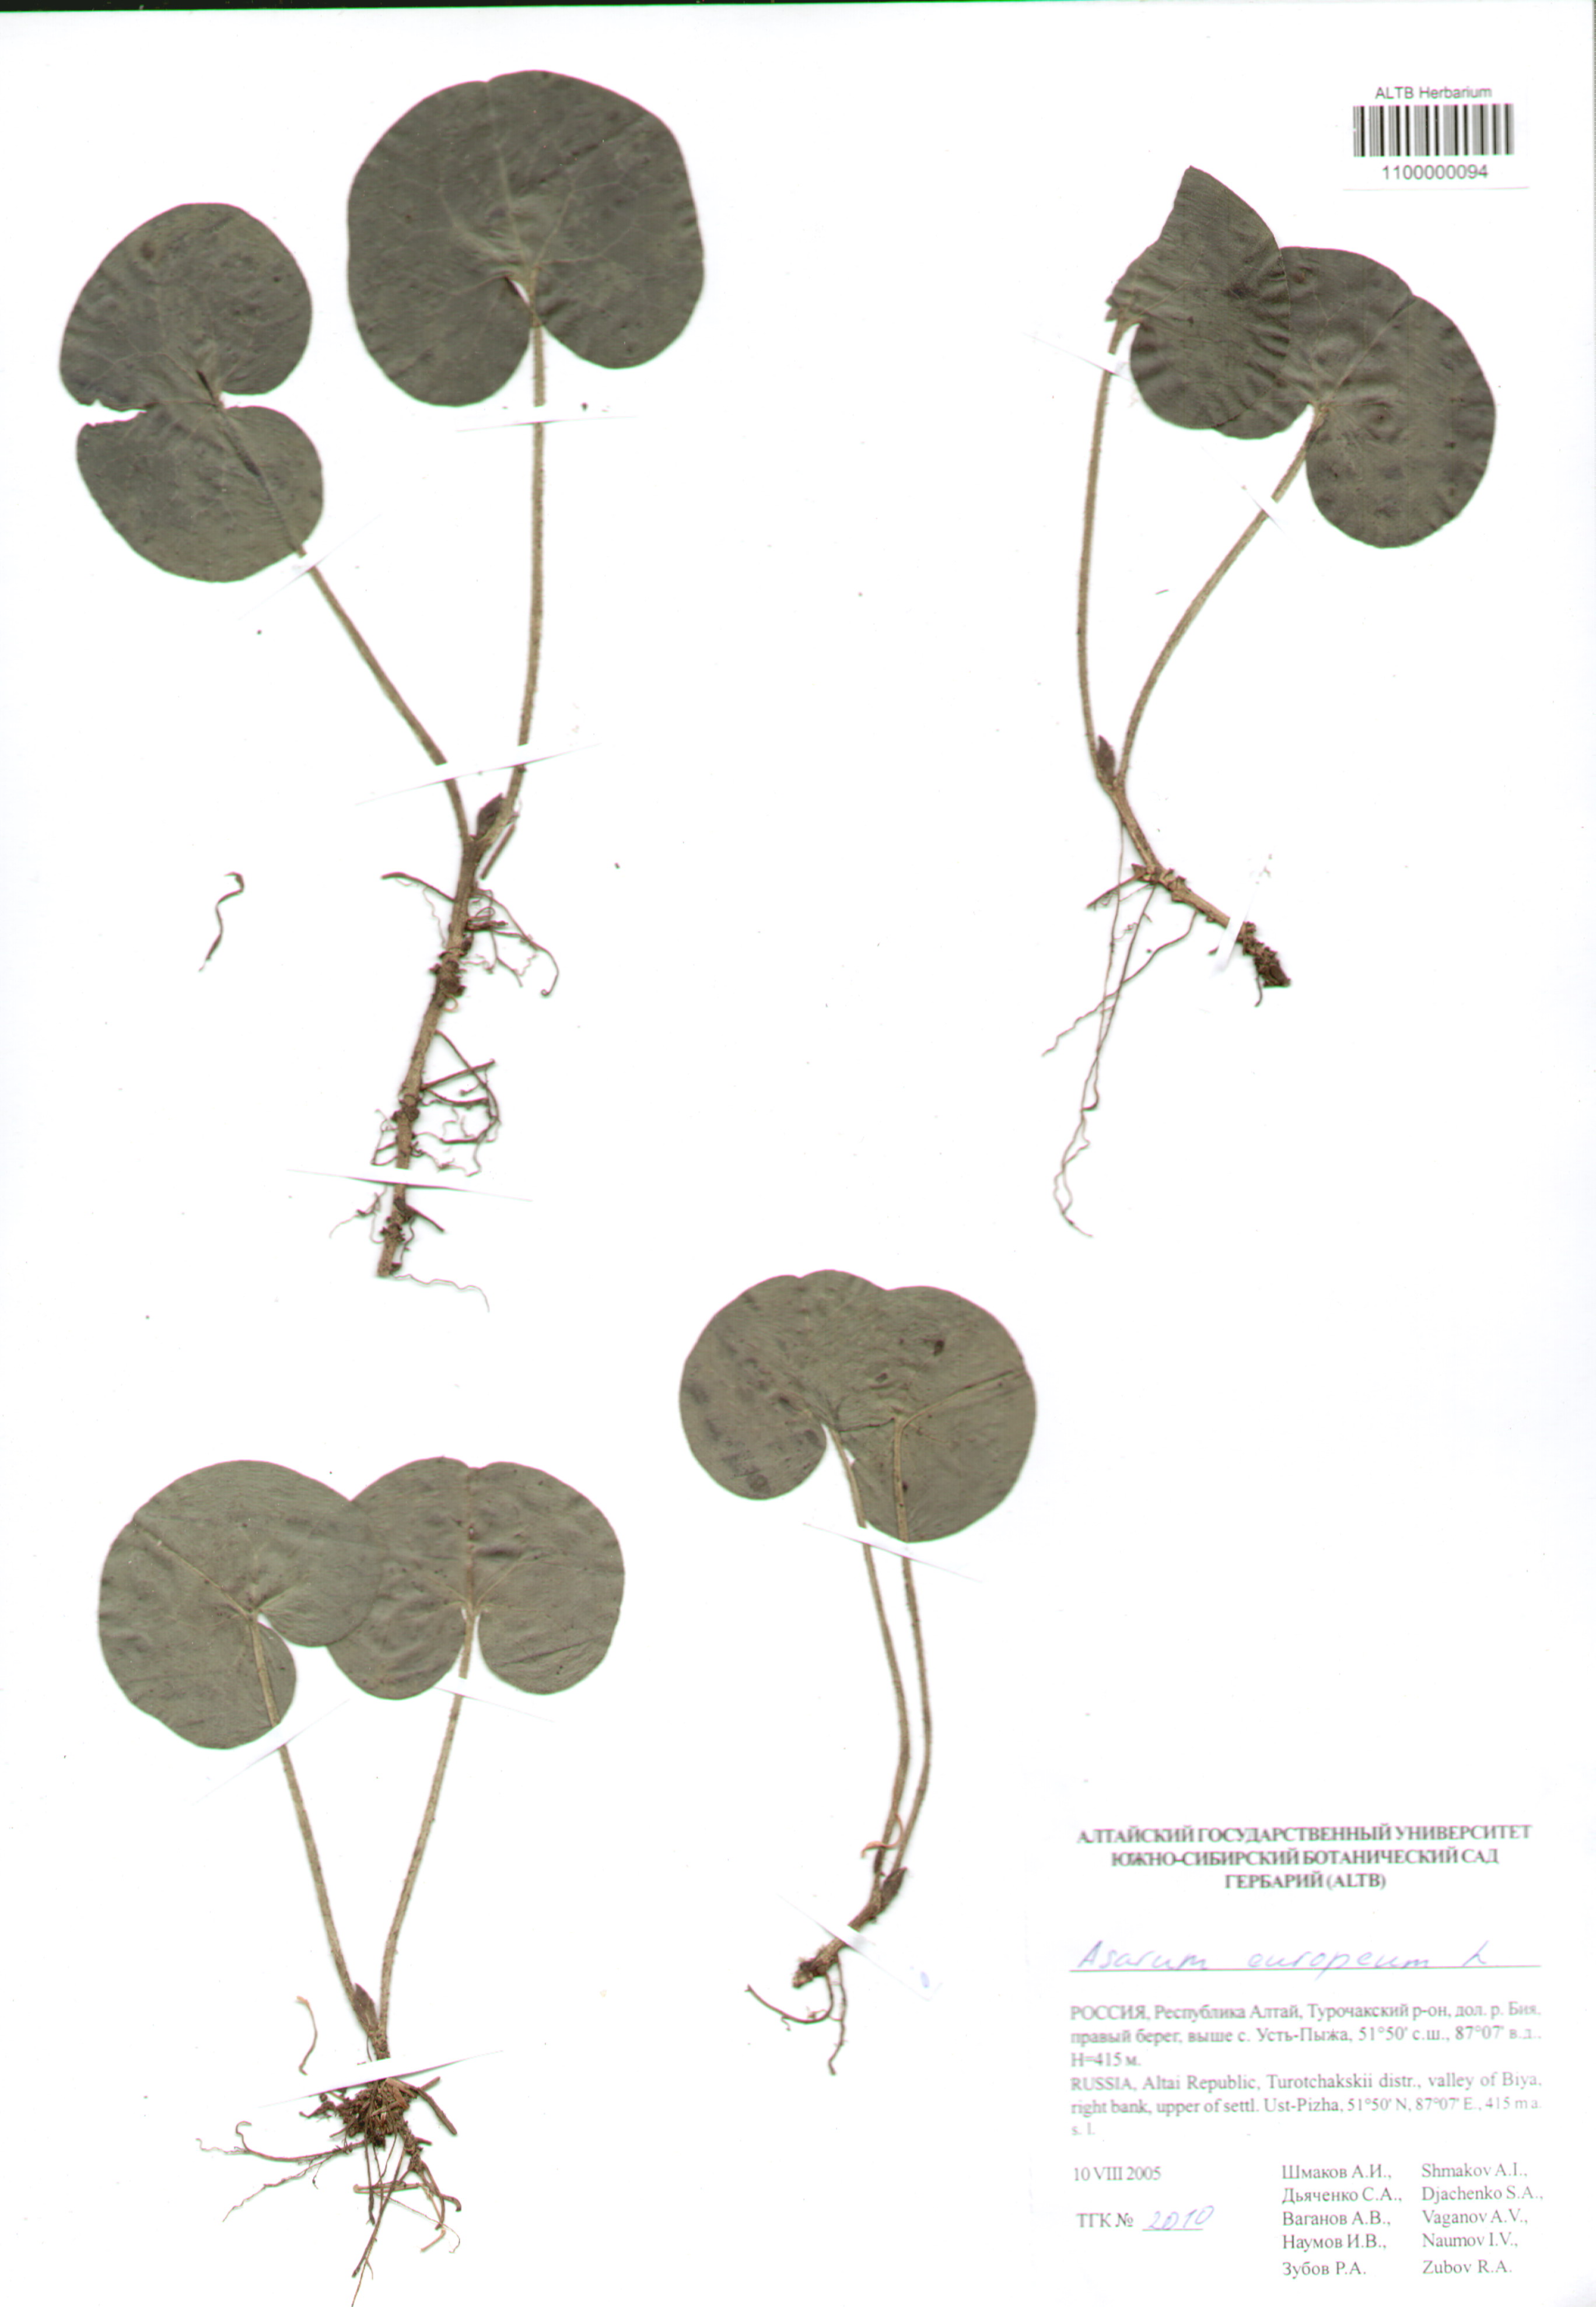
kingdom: Plantae
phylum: Tracheophyta
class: Magnoliopsida
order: Piperales
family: Aristolochiaceae
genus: Asarum
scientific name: Asarum europaeum
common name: Asarabacca
